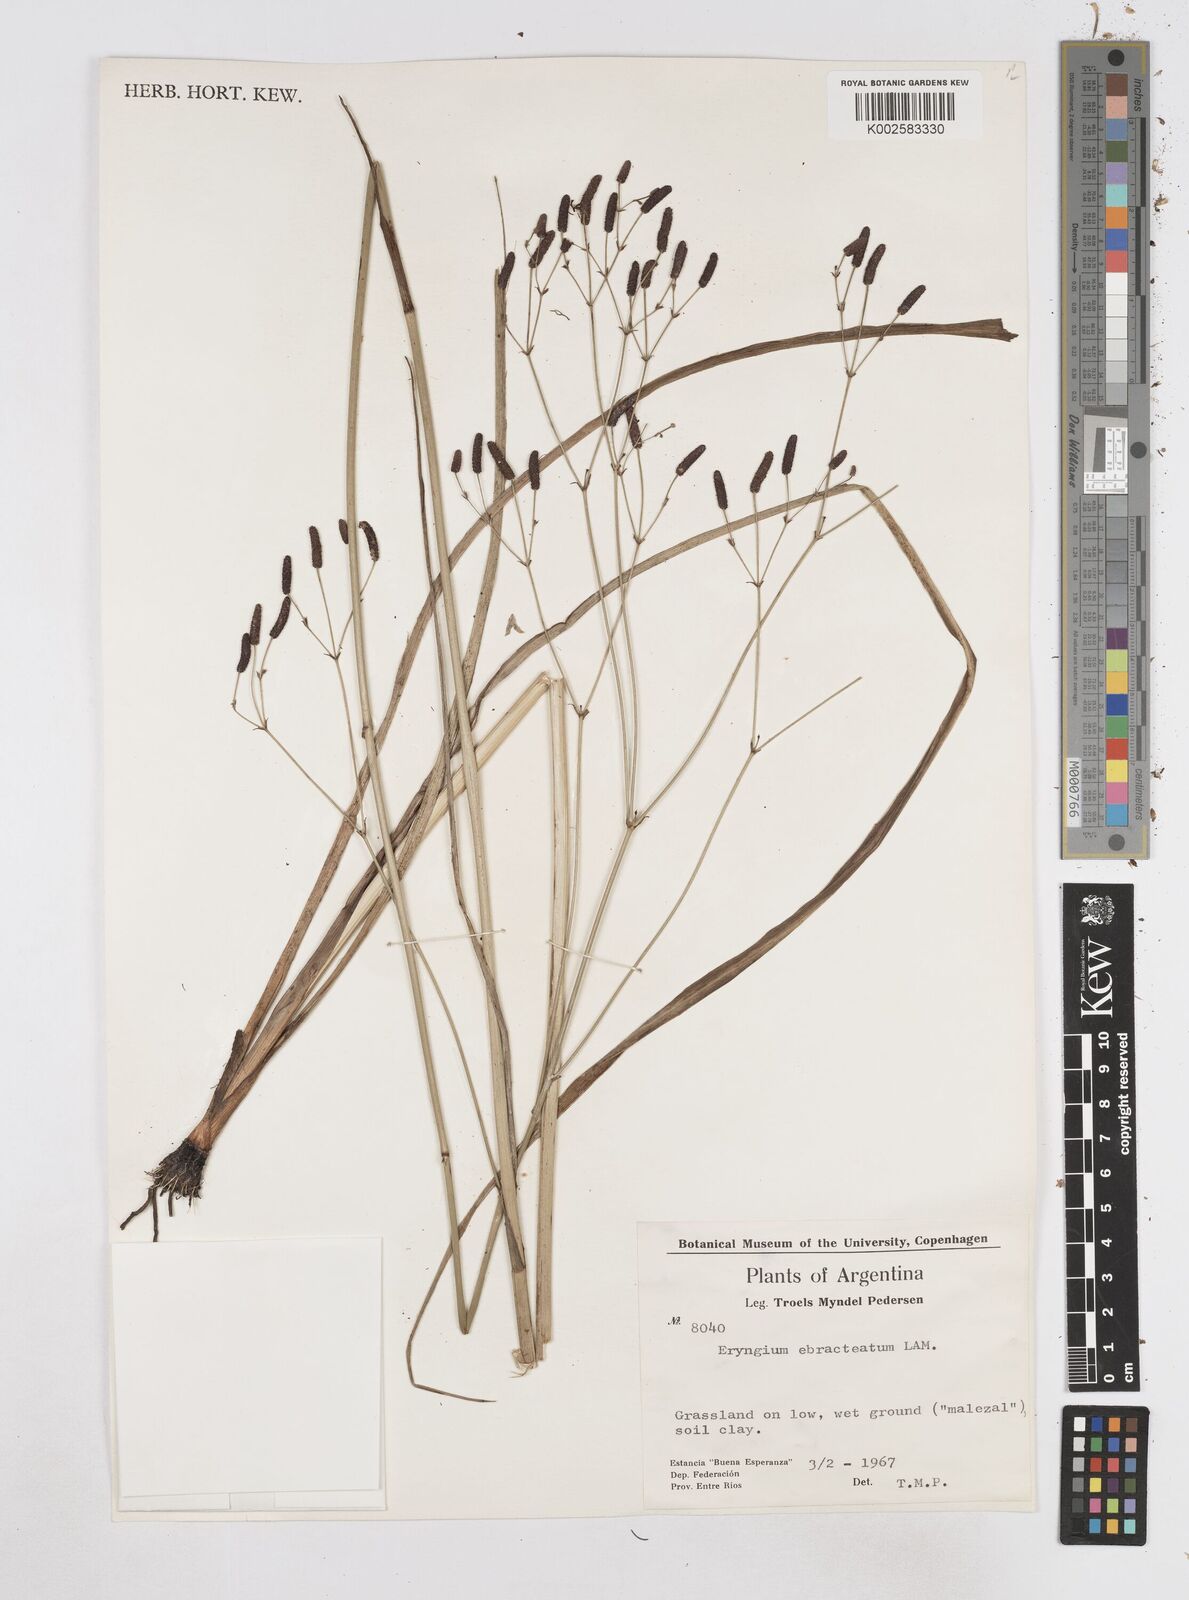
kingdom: Plantae
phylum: Tracheophyta
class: Magnoliopsida
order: Apiales
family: Apiaceae
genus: Eryngium
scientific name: Eryngium ebracteatum
